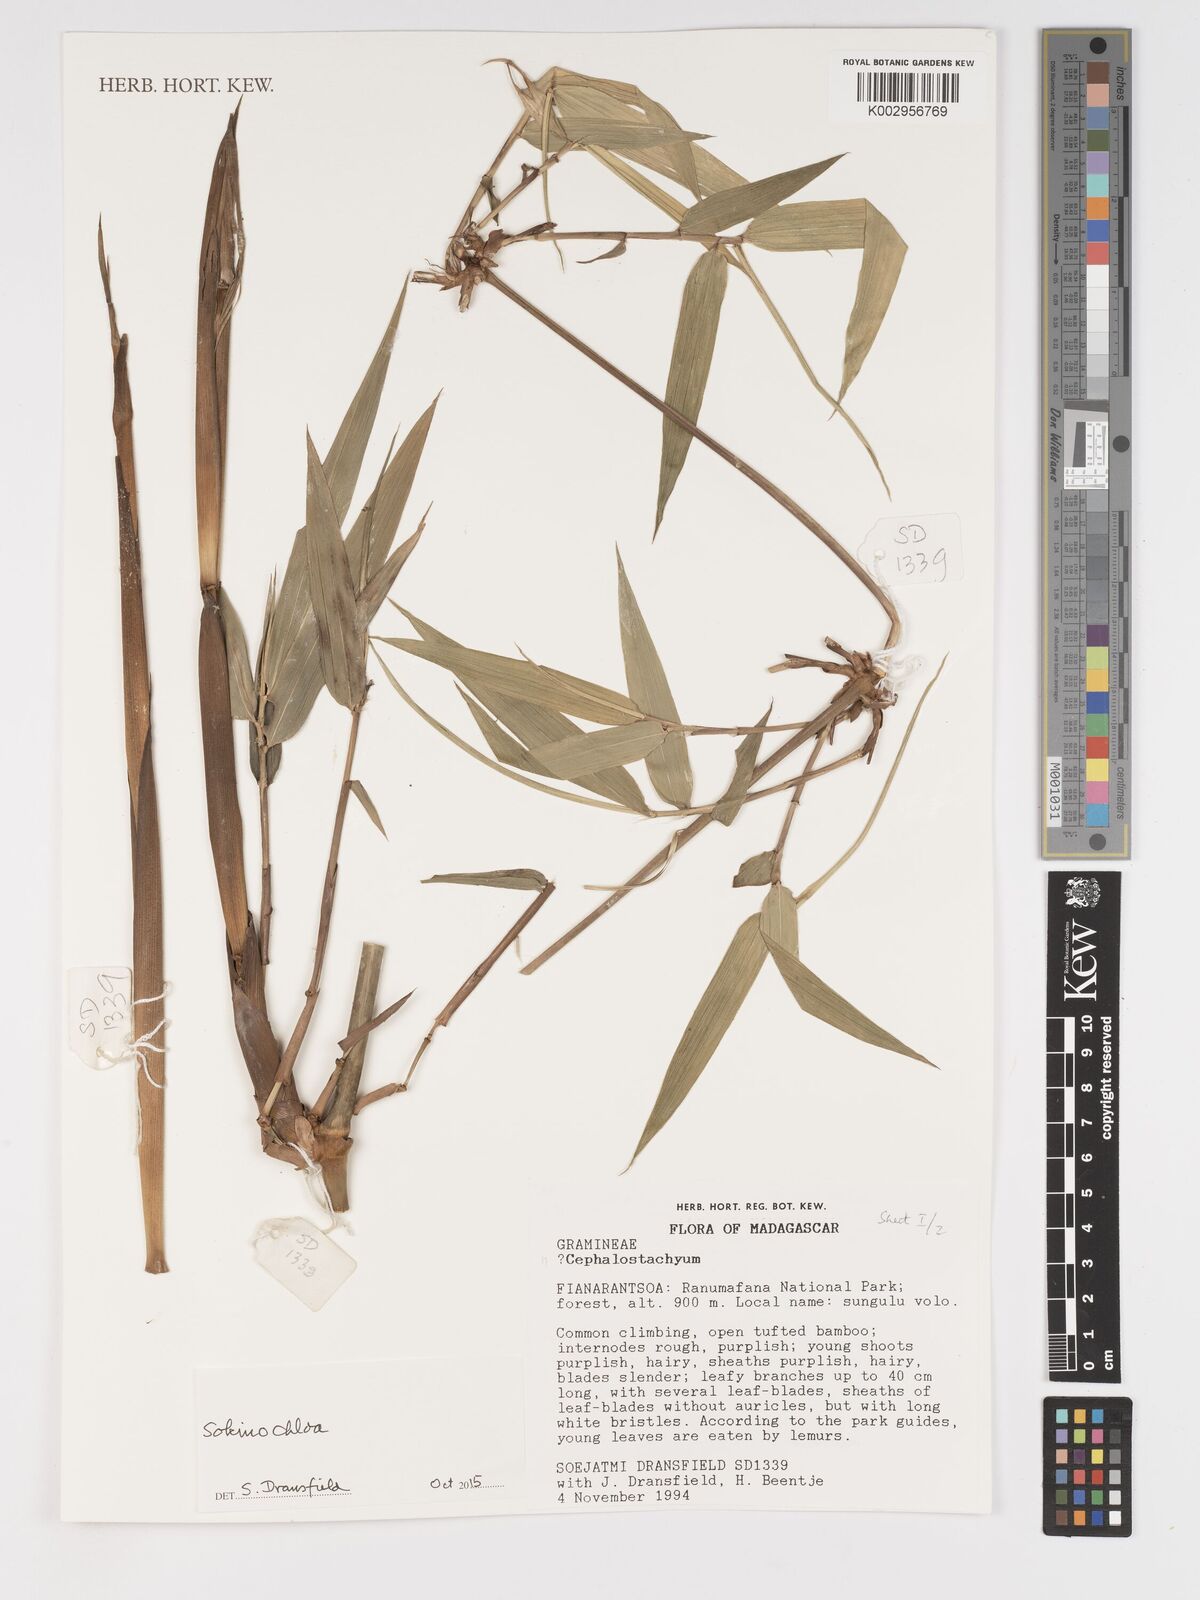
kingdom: Plantae
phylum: Tracheophyta
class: Liliopsida
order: Poales
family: Poaceae
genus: Sokinochloa
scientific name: Sokinochloa
